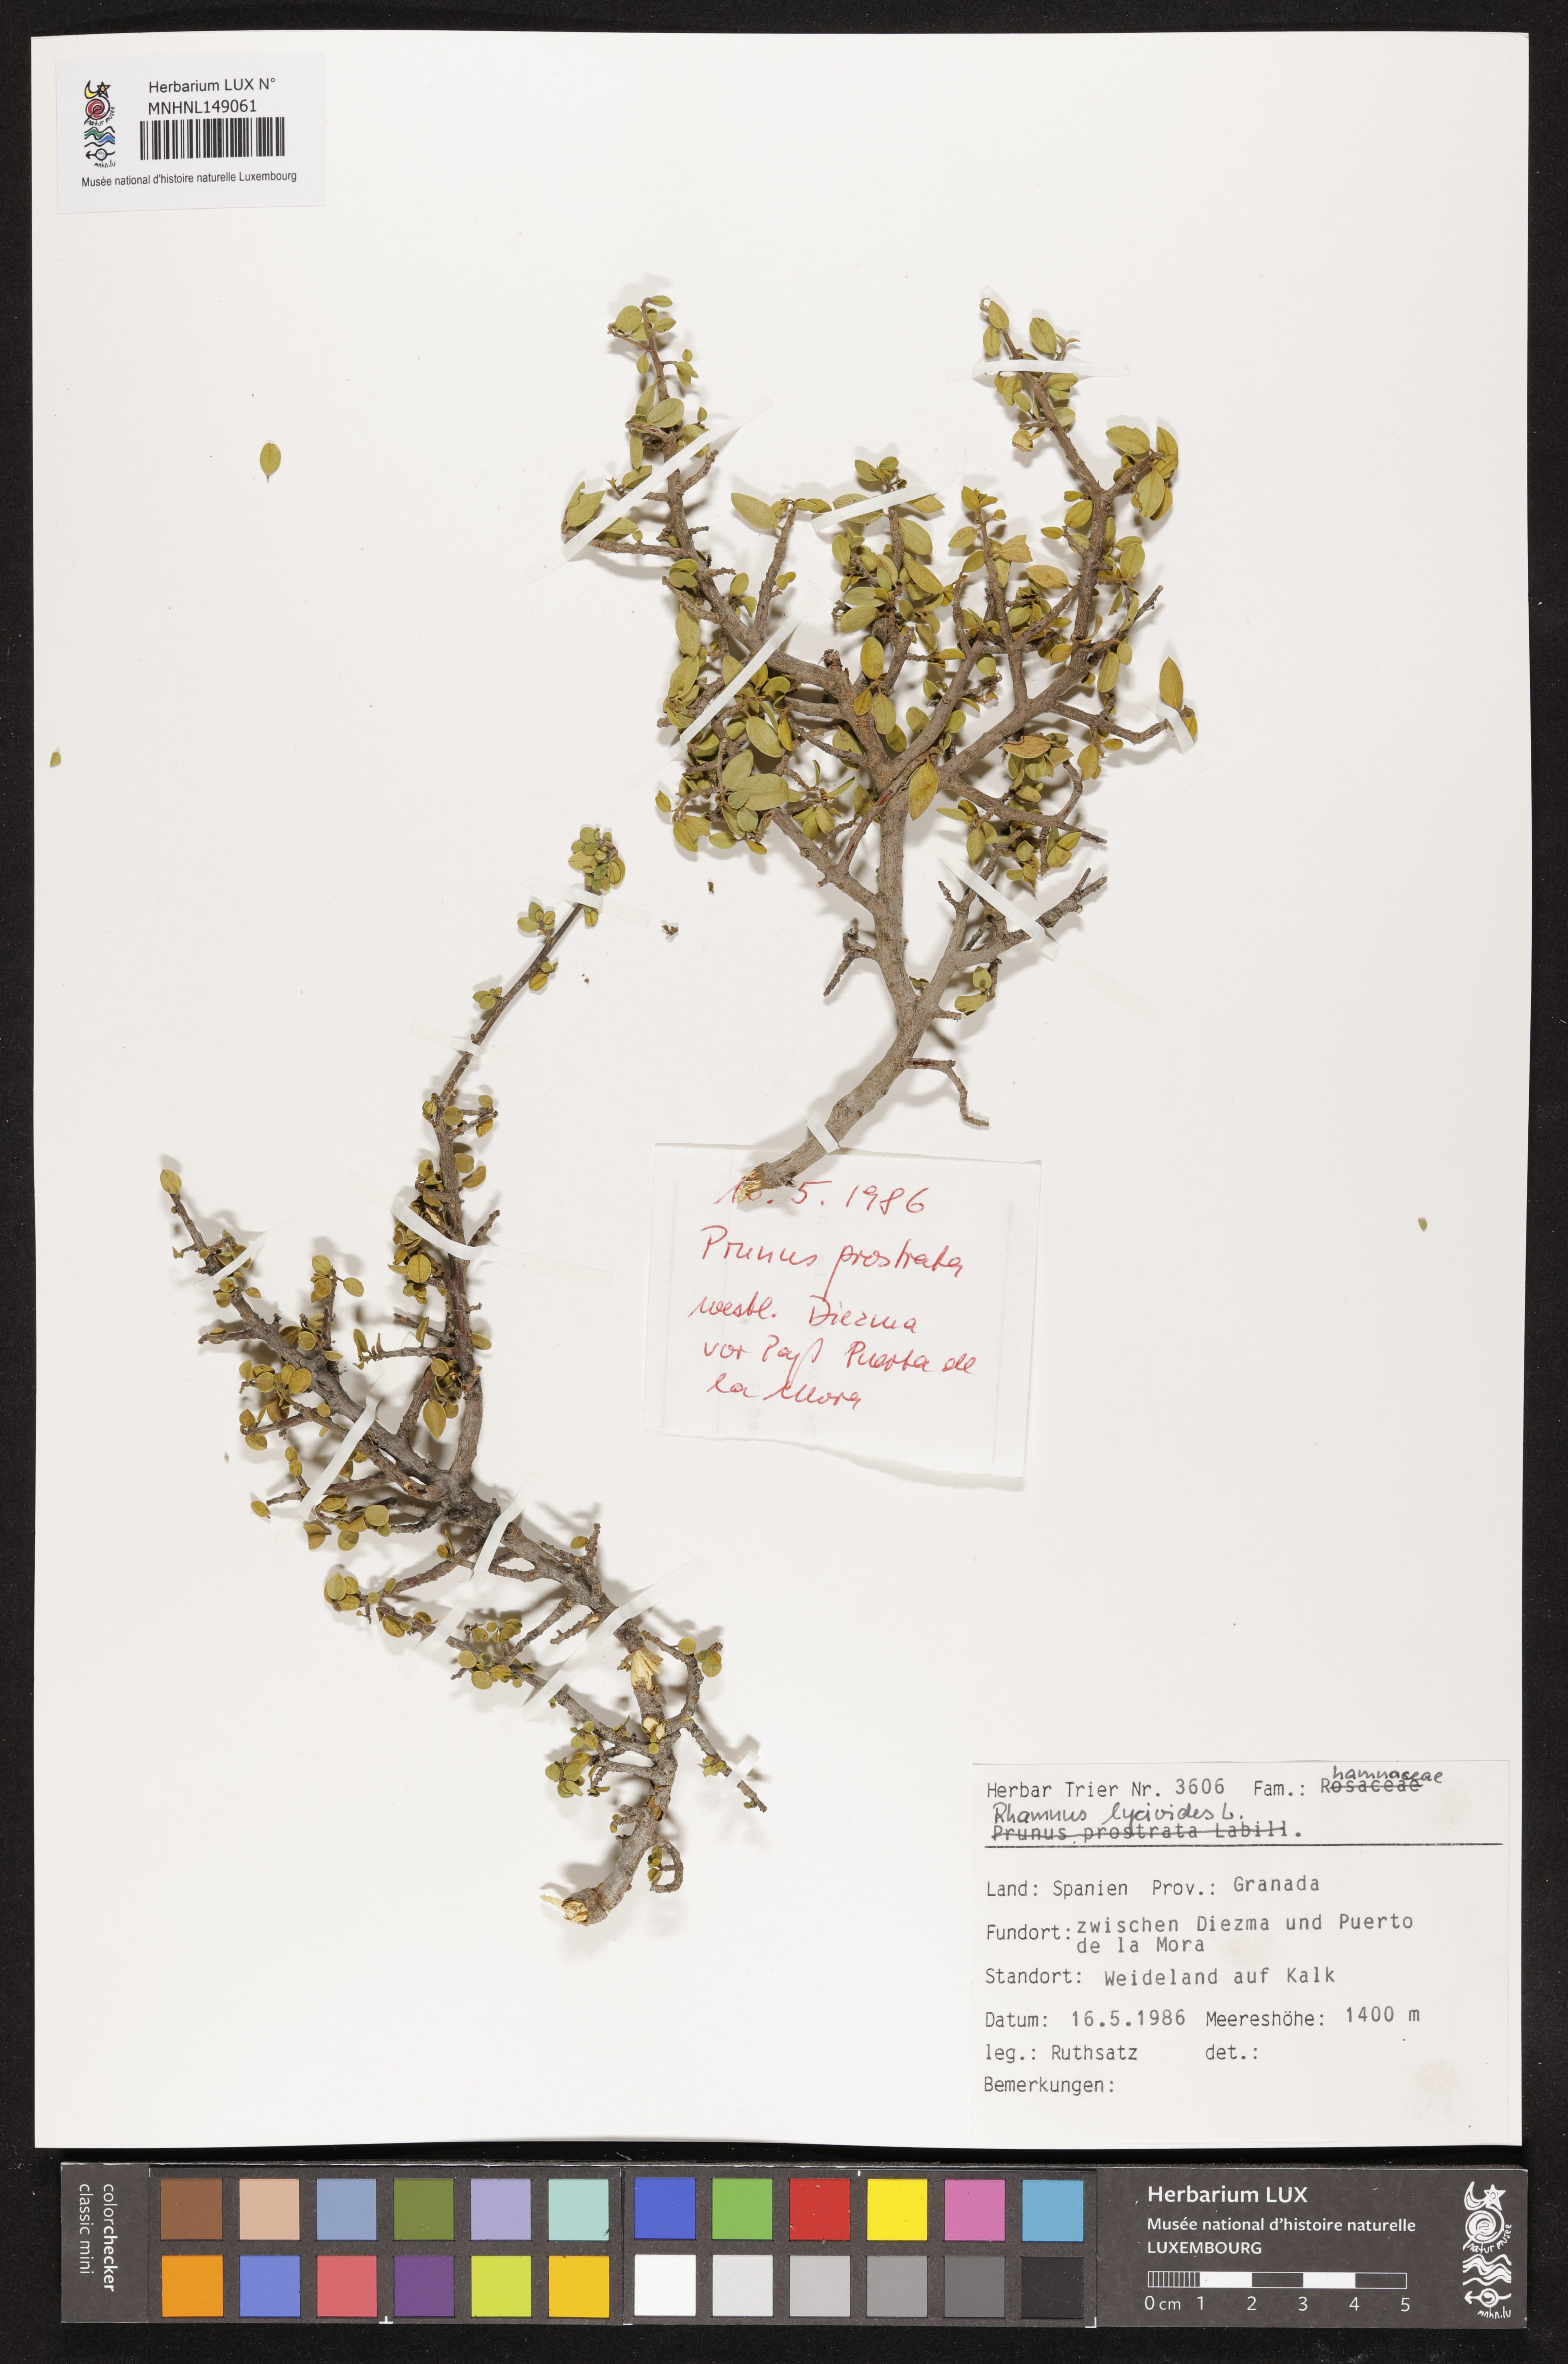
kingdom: Plantae
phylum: Tracheophyta
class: Magnoliopsida
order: Rosales
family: Rhamnaceae
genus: Rhamnus
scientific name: Rhamnus lycioides
